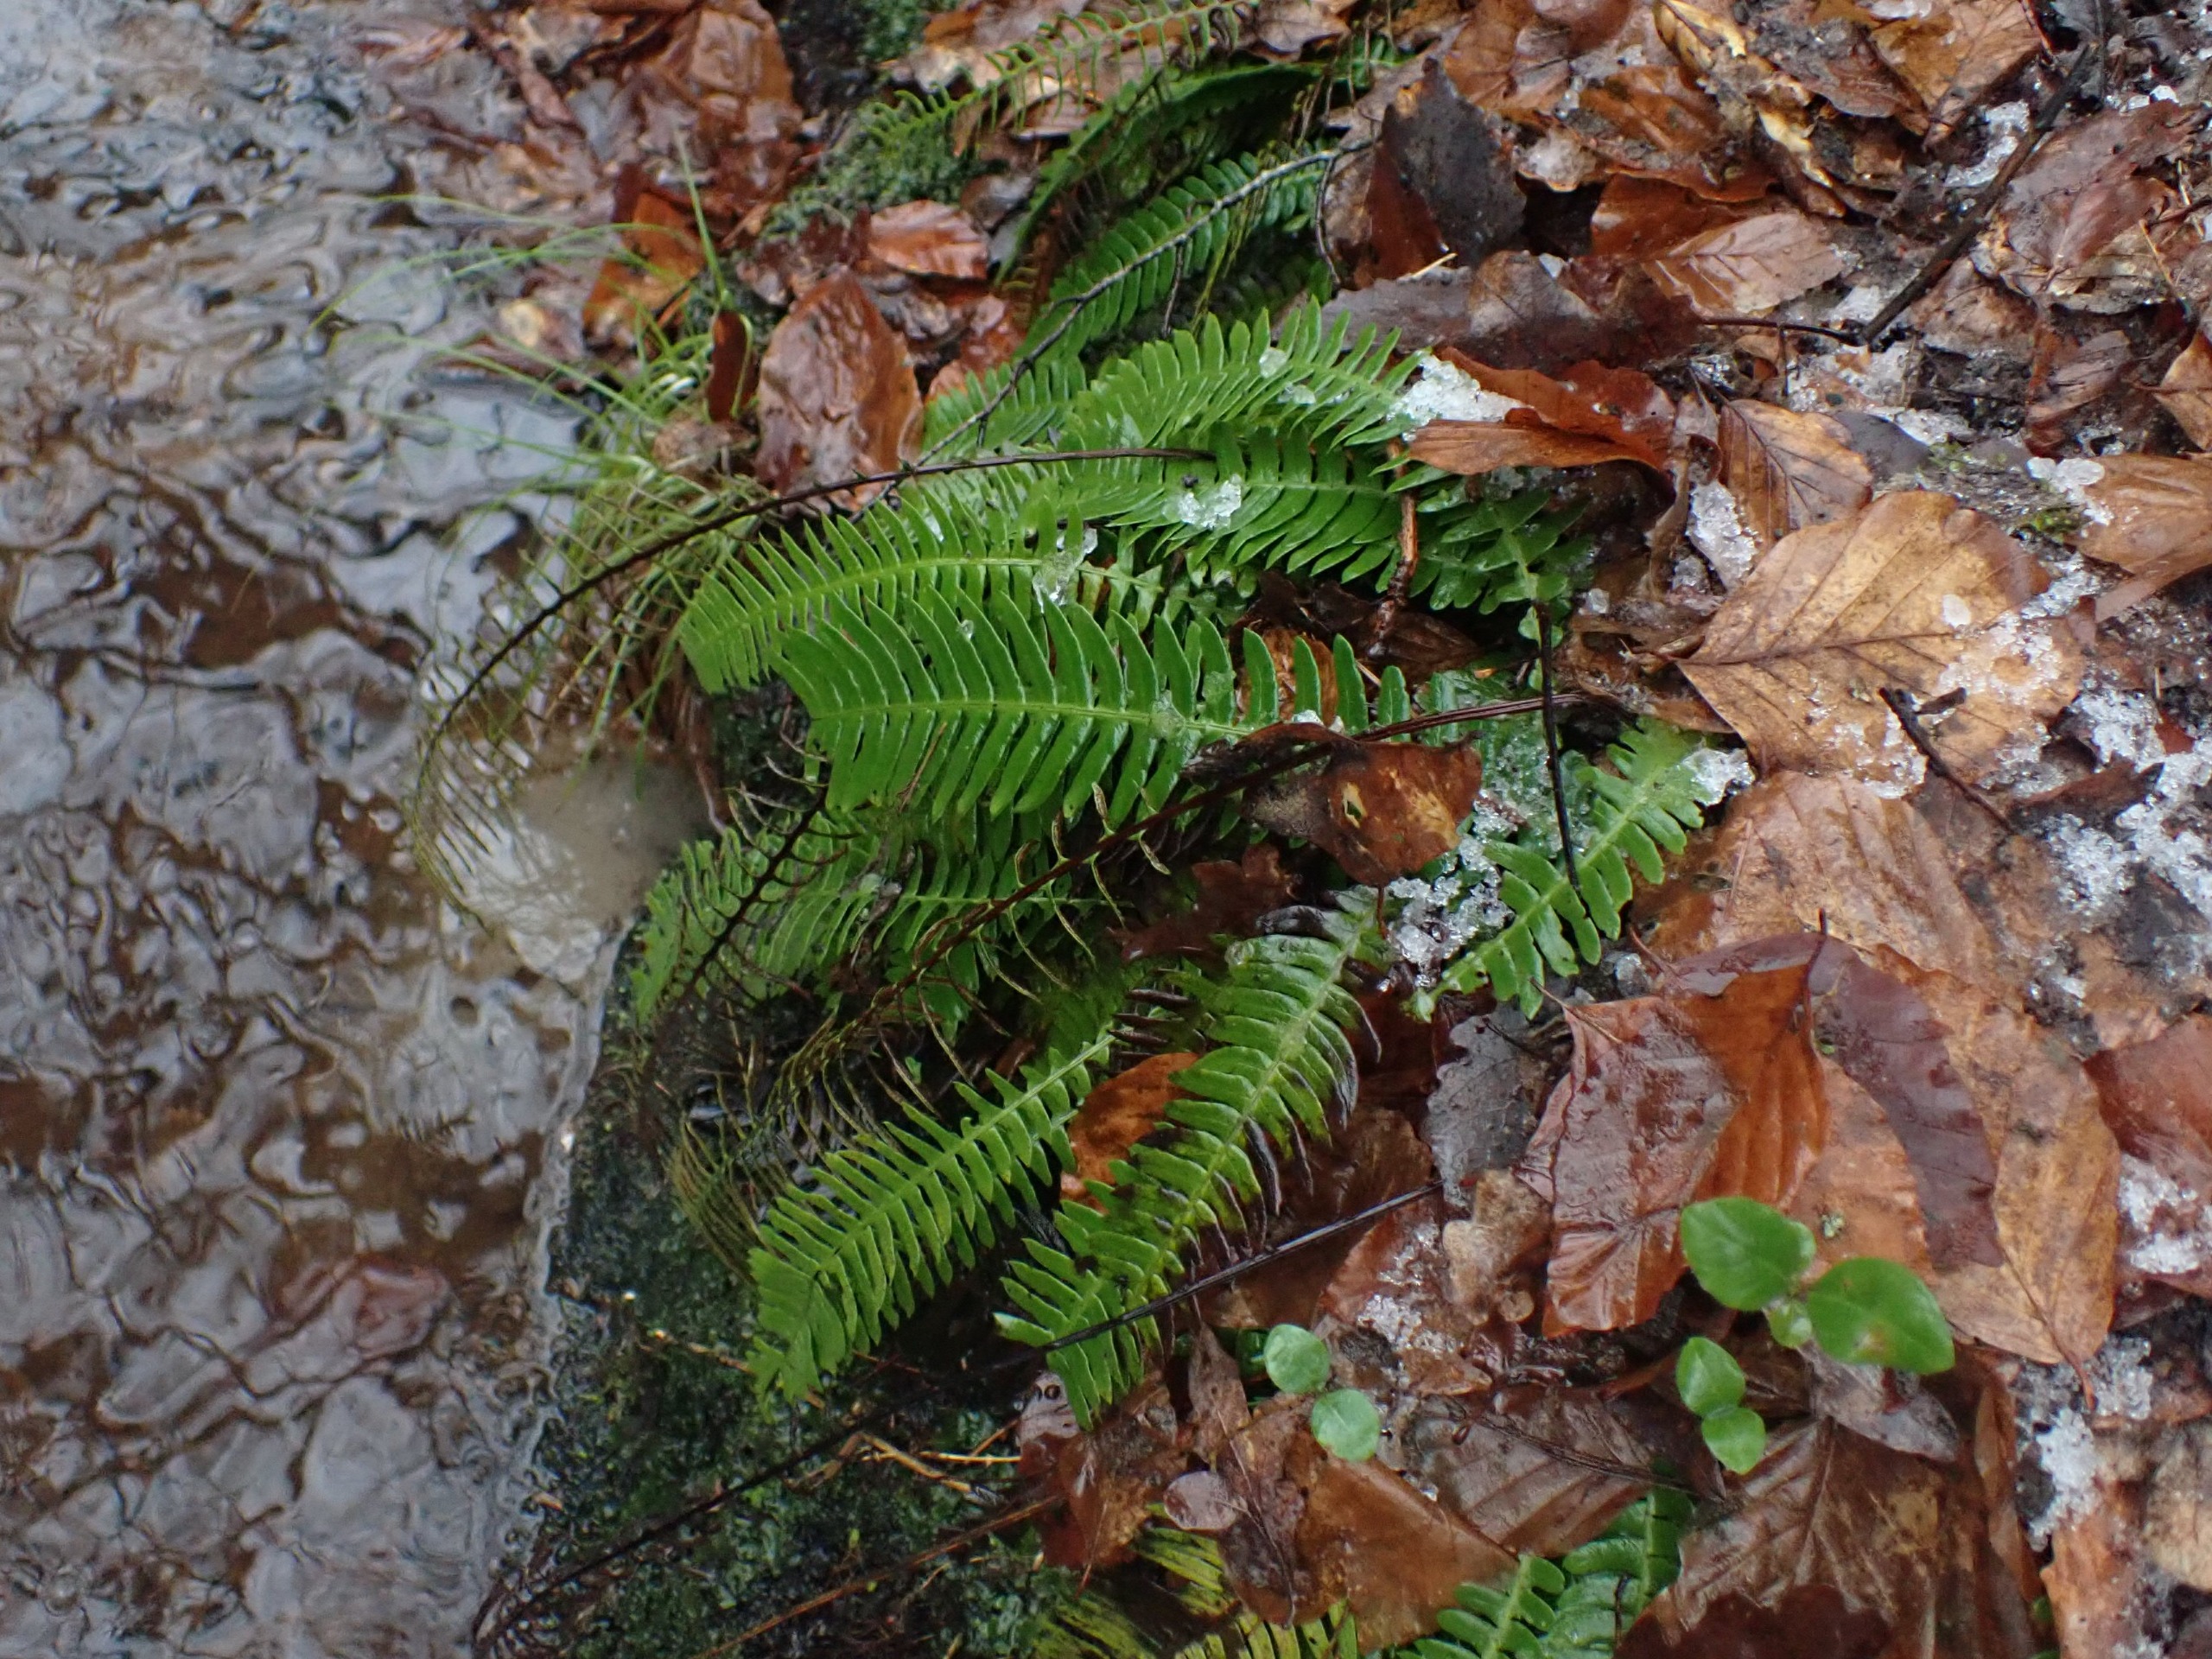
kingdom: Plantae
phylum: Tracheophyta
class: Polypodiopsida
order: Polypodiales
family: Blechnaceae
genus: Struthiopteris
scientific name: Struthiopteris spicant
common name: Kambregne
